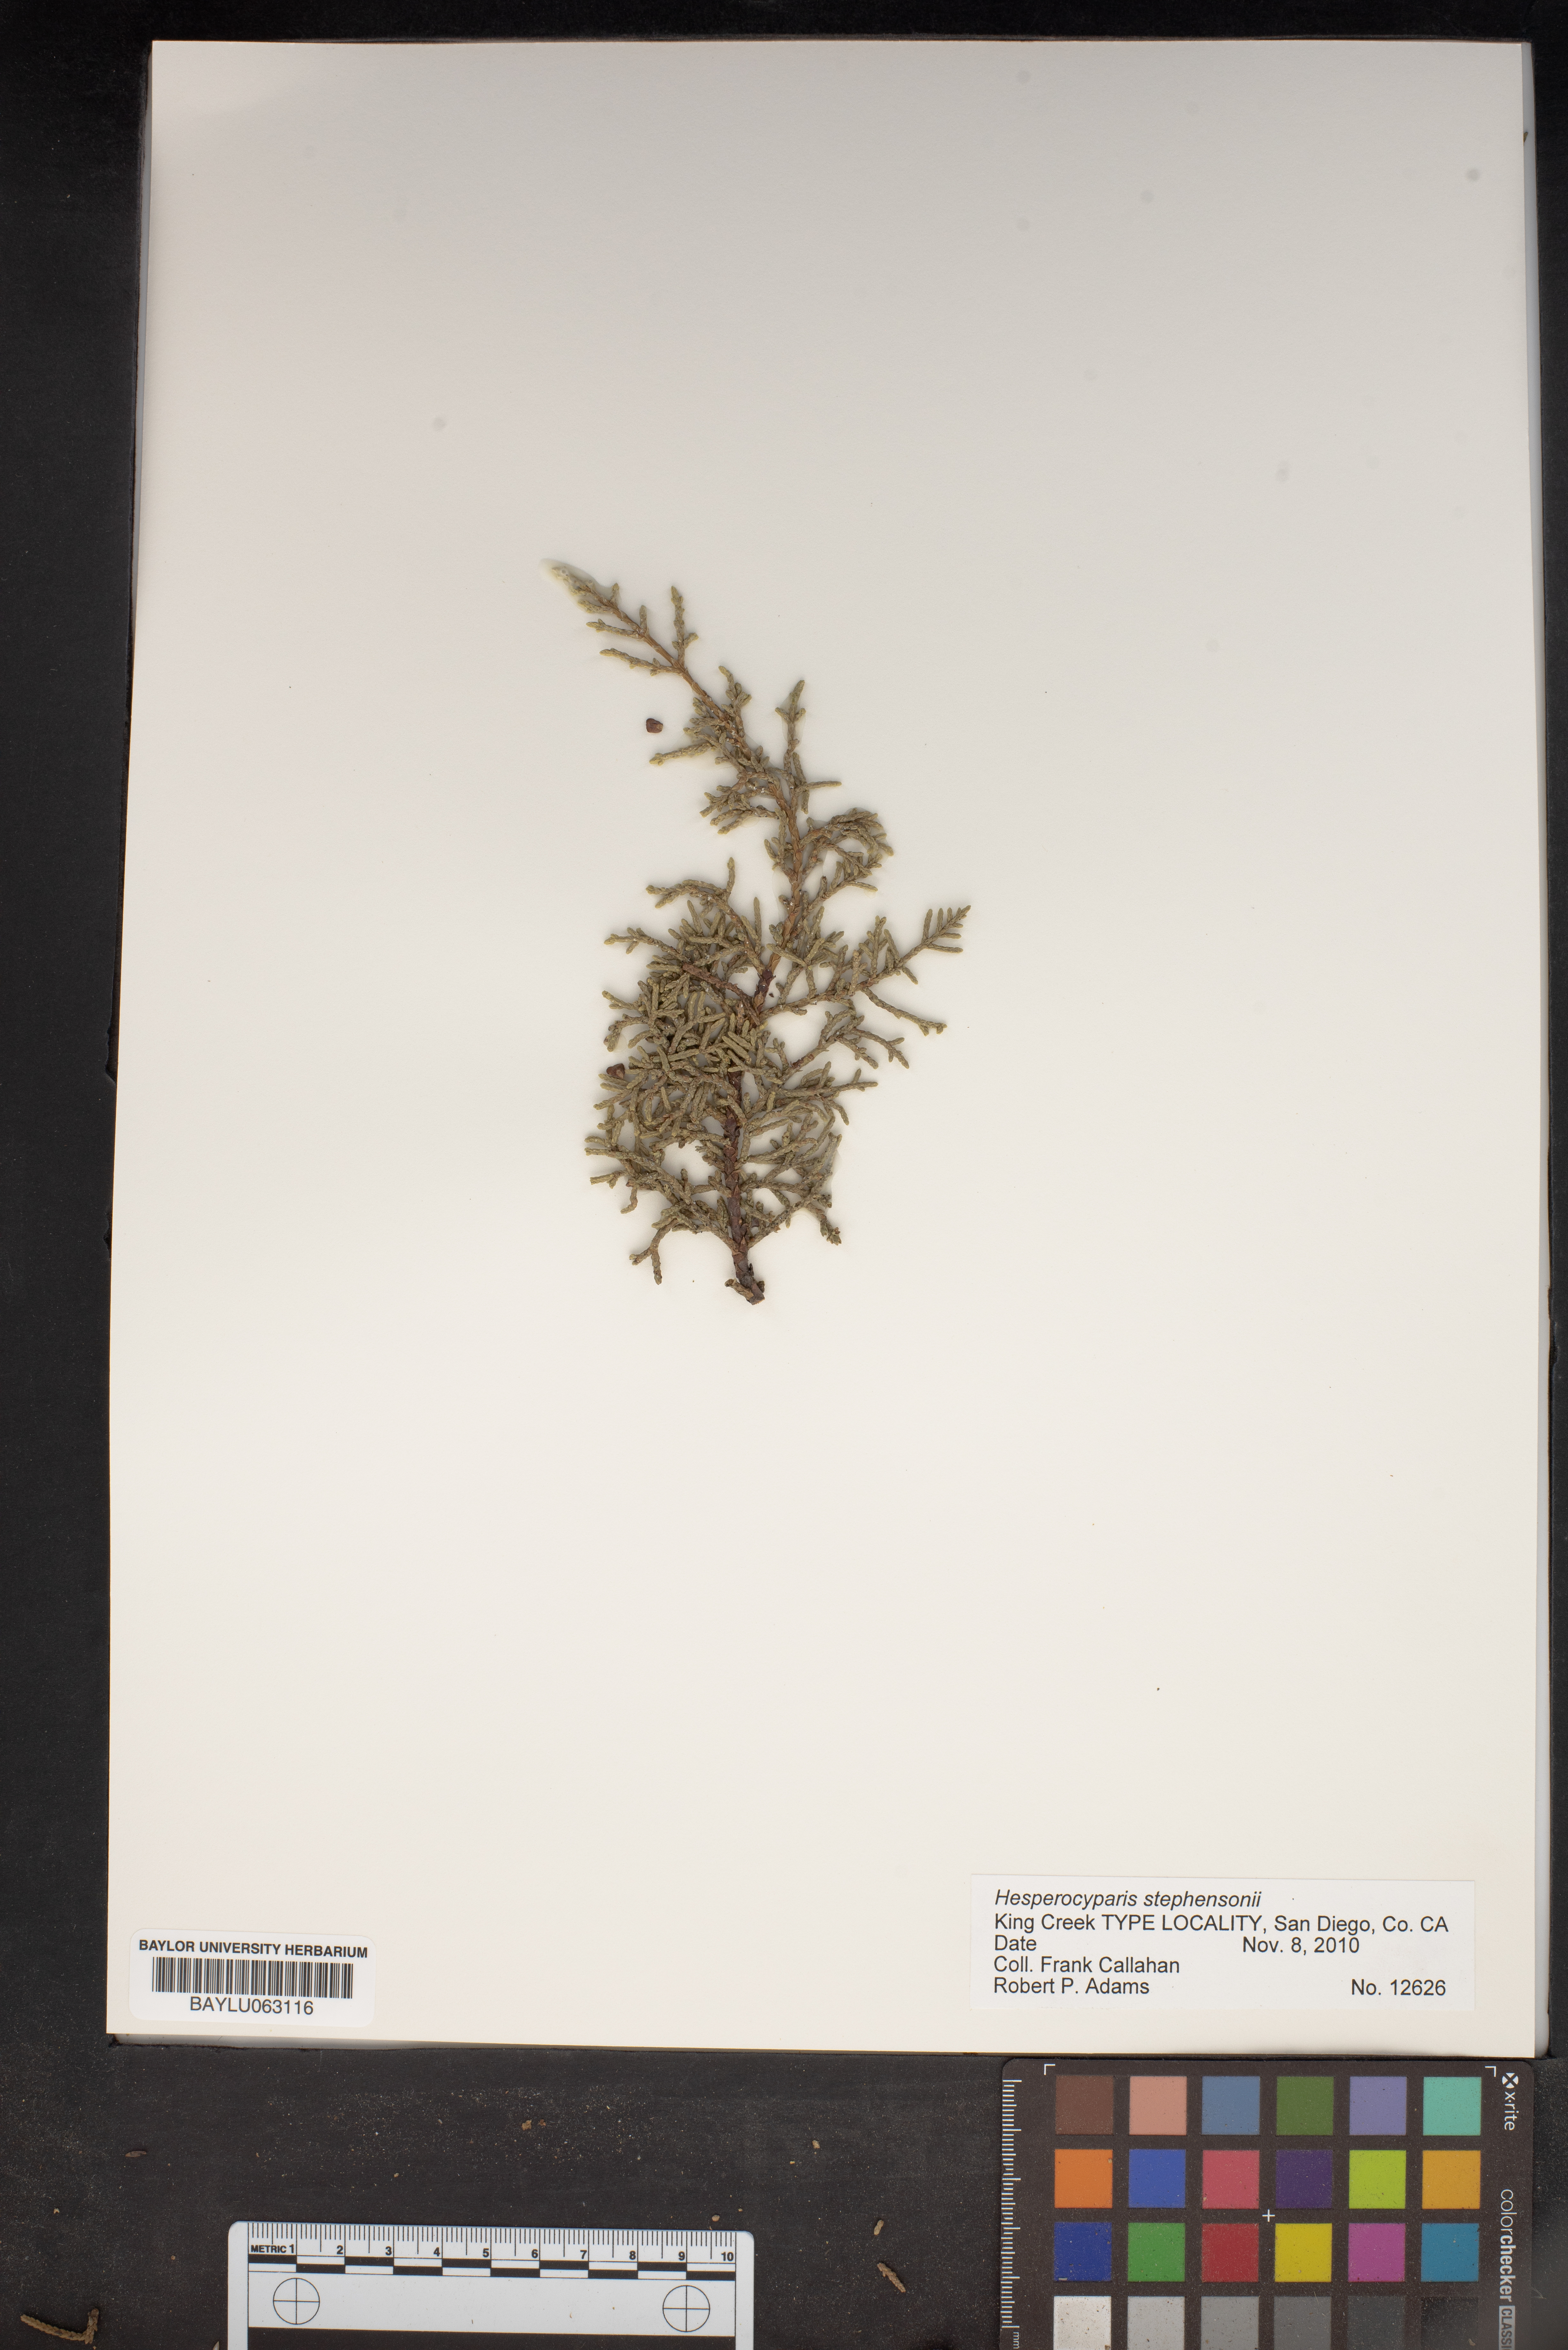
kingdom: Plantae
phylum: Tracheophyta
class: Pinopsida
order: Pinales
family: Cupressaceae
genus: Cupressus
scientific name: Cupressus arizonica
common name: Arizona cypress
